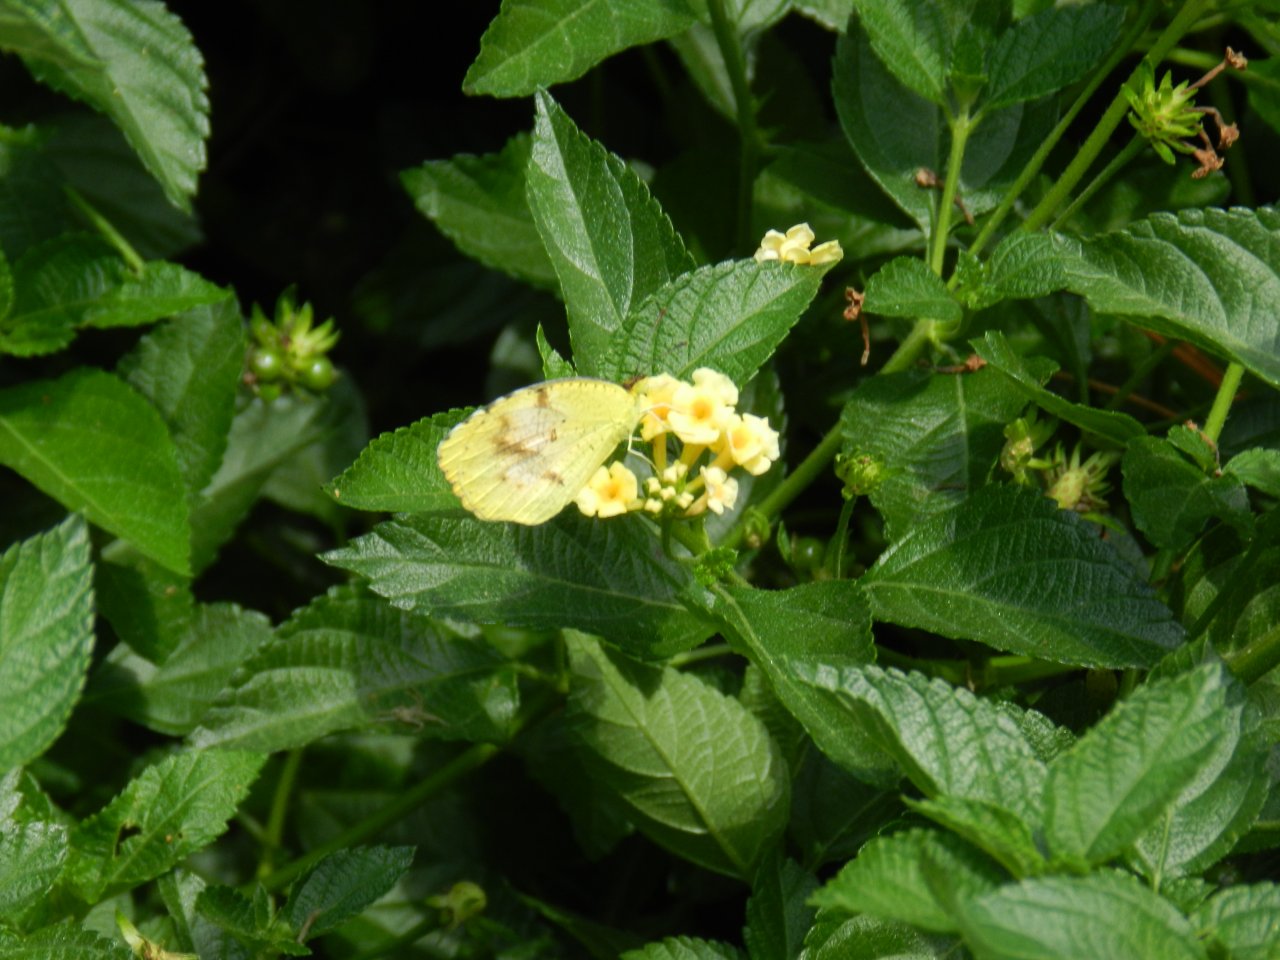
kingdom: Animalia
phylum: Arthropoda
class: Insecta
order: Lepidoptera
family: Pieridae
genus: Abaeis
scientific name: Abaeis nicippe
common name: Sleepy Orange
